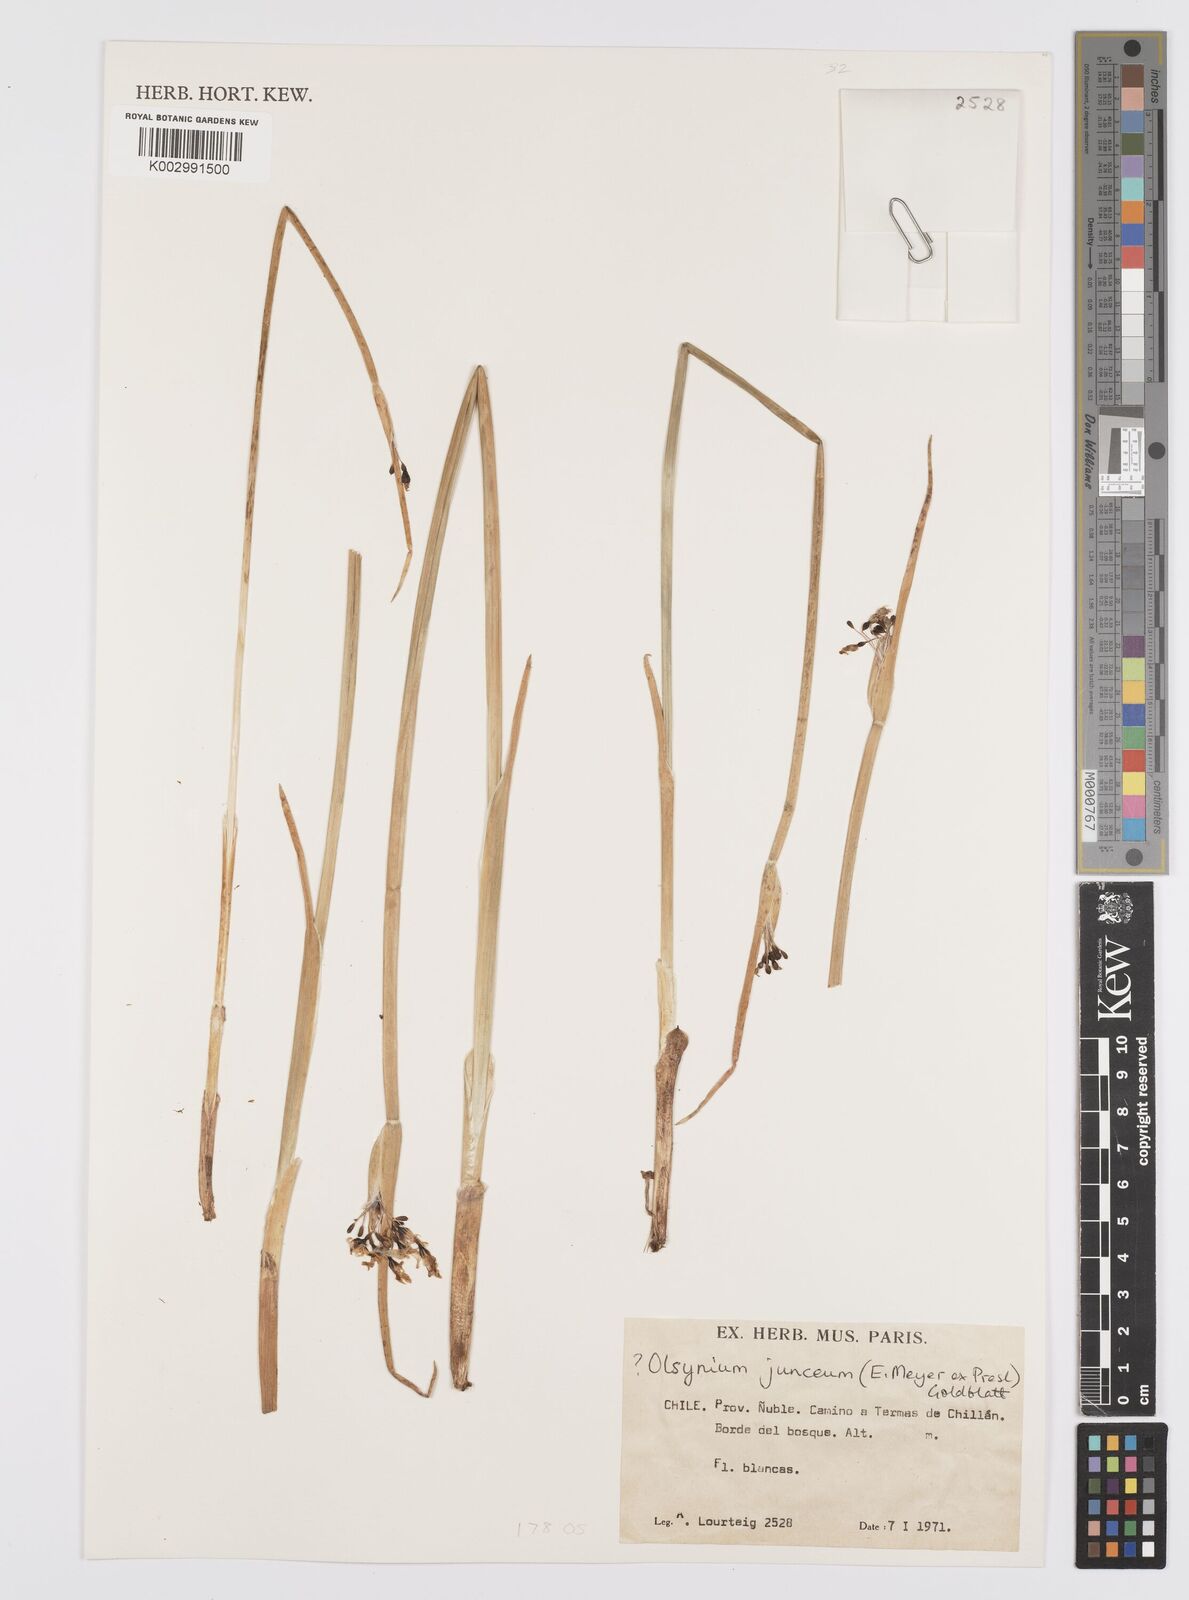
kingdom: Plantae
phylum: Tracheophyta
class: Liliopsida
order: Asparagales
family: Iridaceae
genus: Olsynium
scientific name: Olsynium junceum
